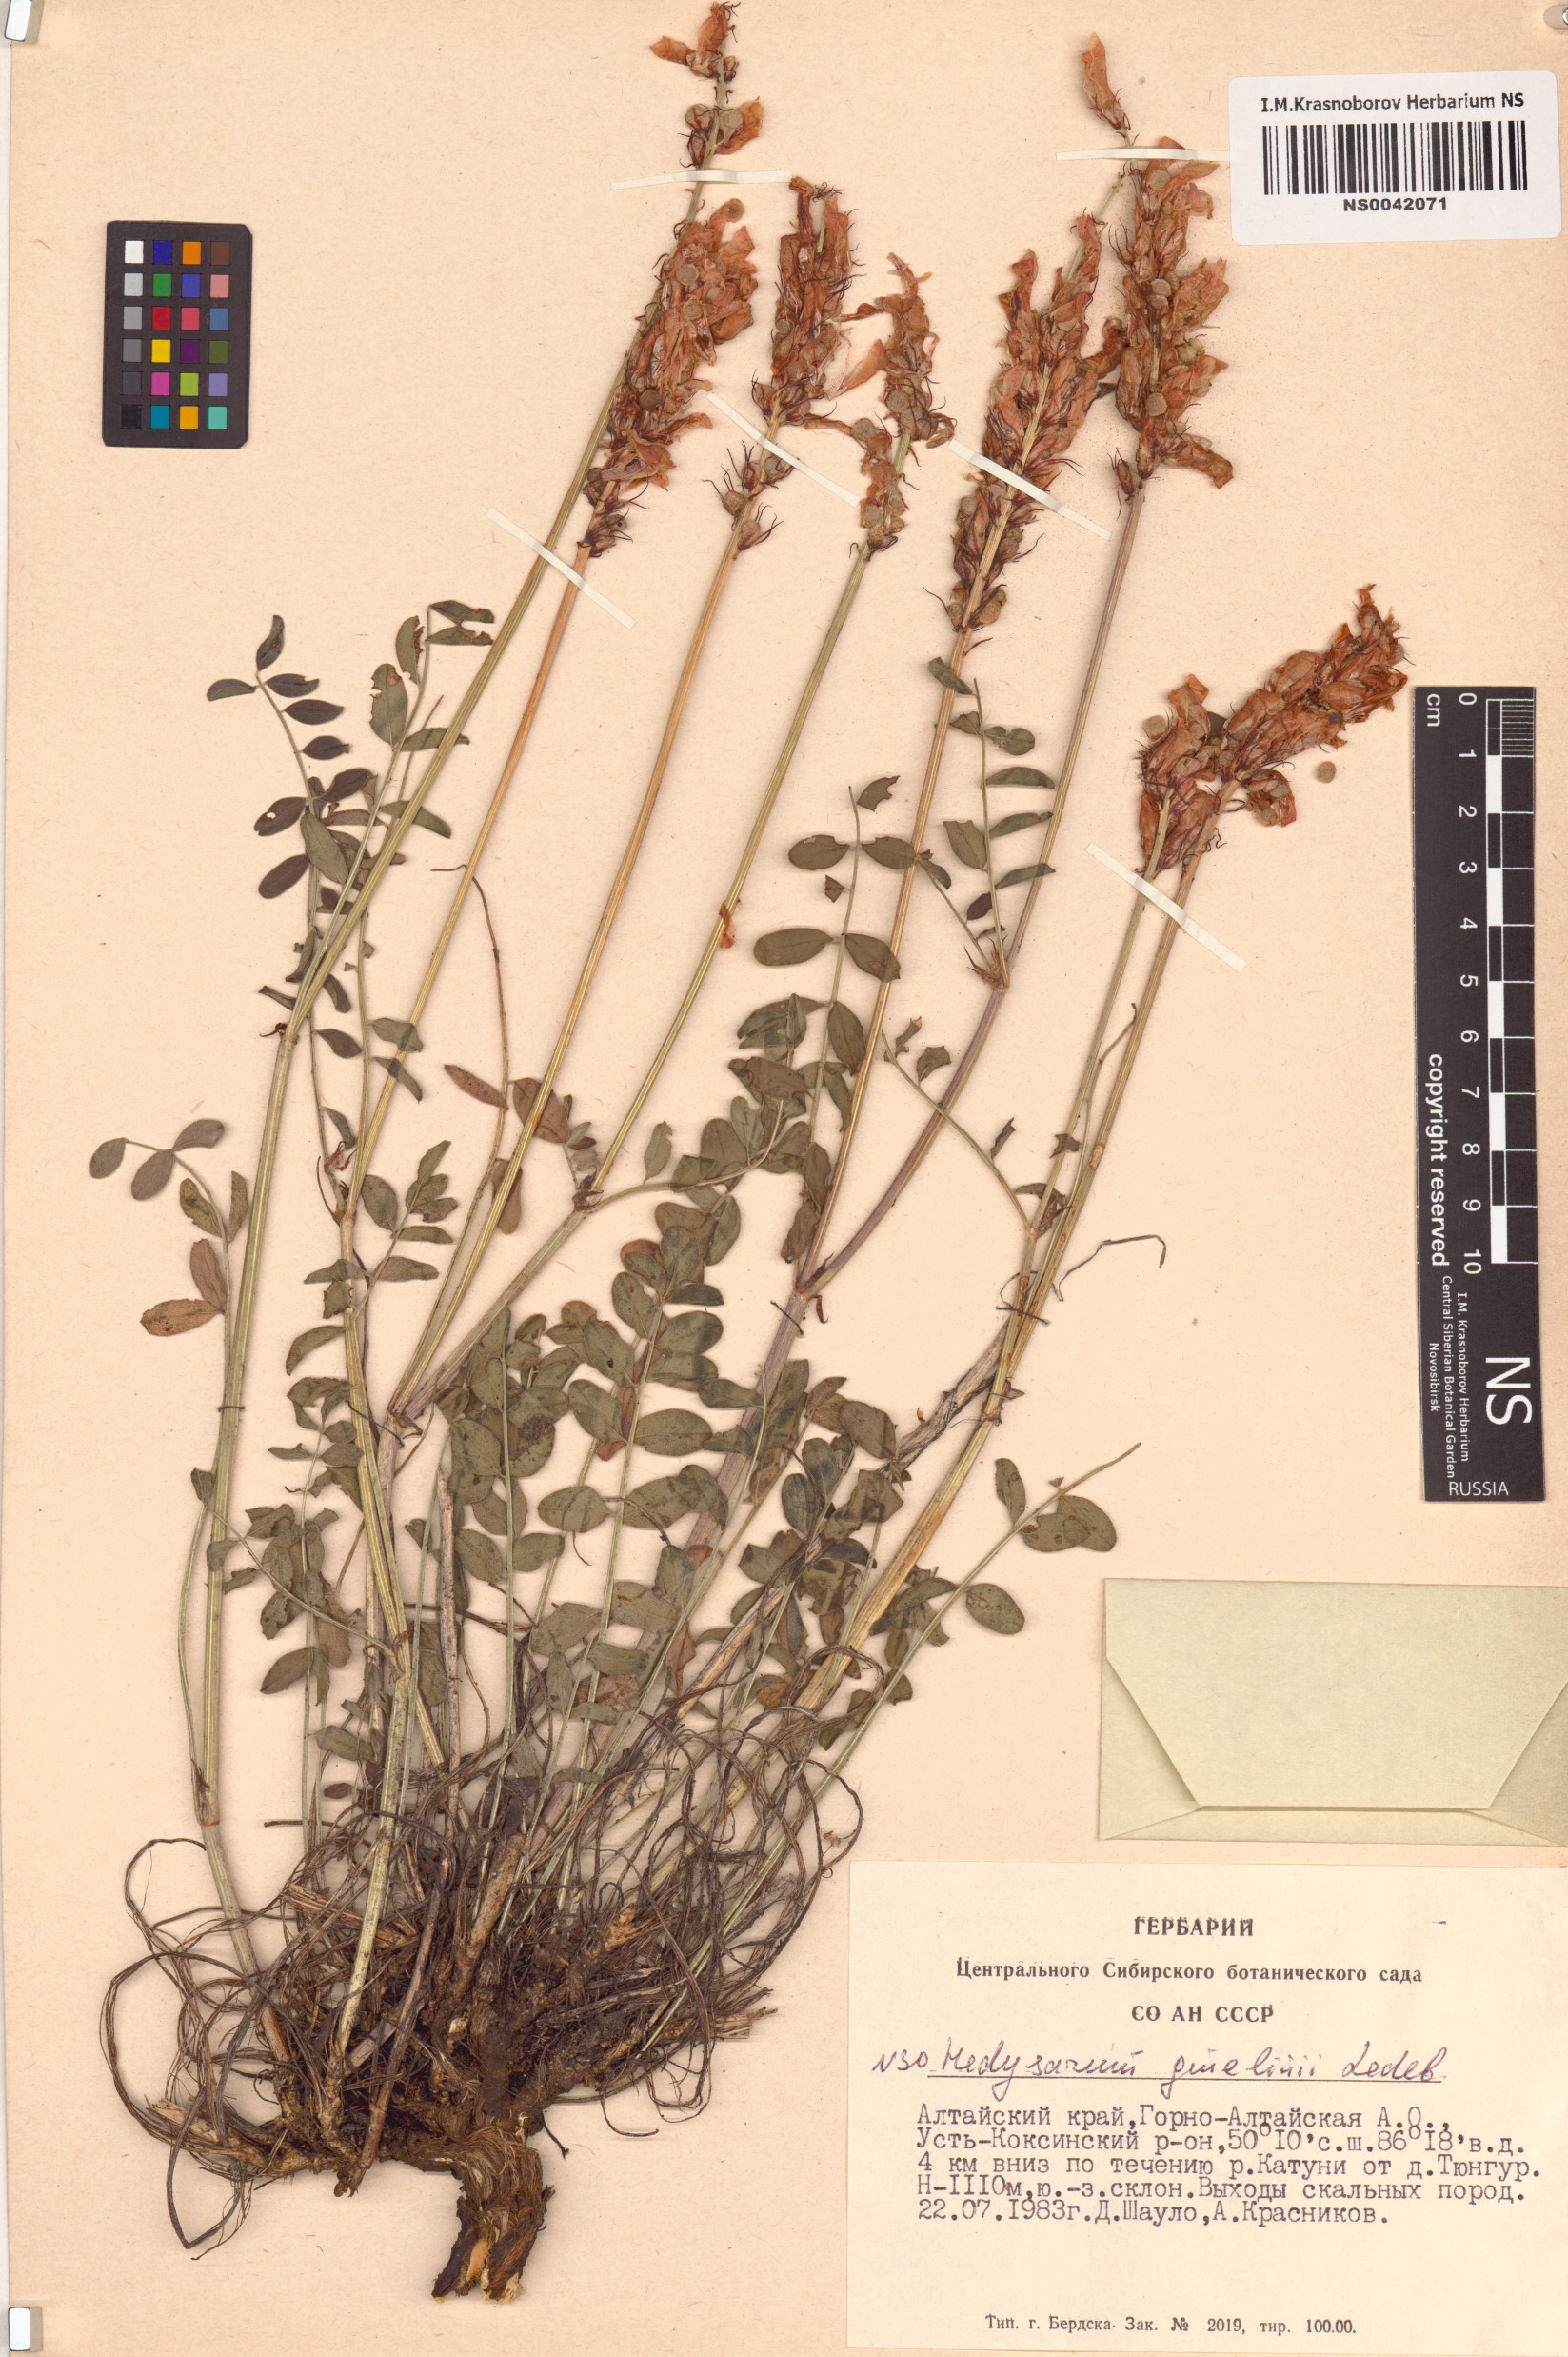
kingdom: Plantae
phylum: Tracheophyta
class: Magnoliopsida
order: Fabales
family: Fabaceae
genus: Hedysarum
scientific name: Hedysarum gmelinii
